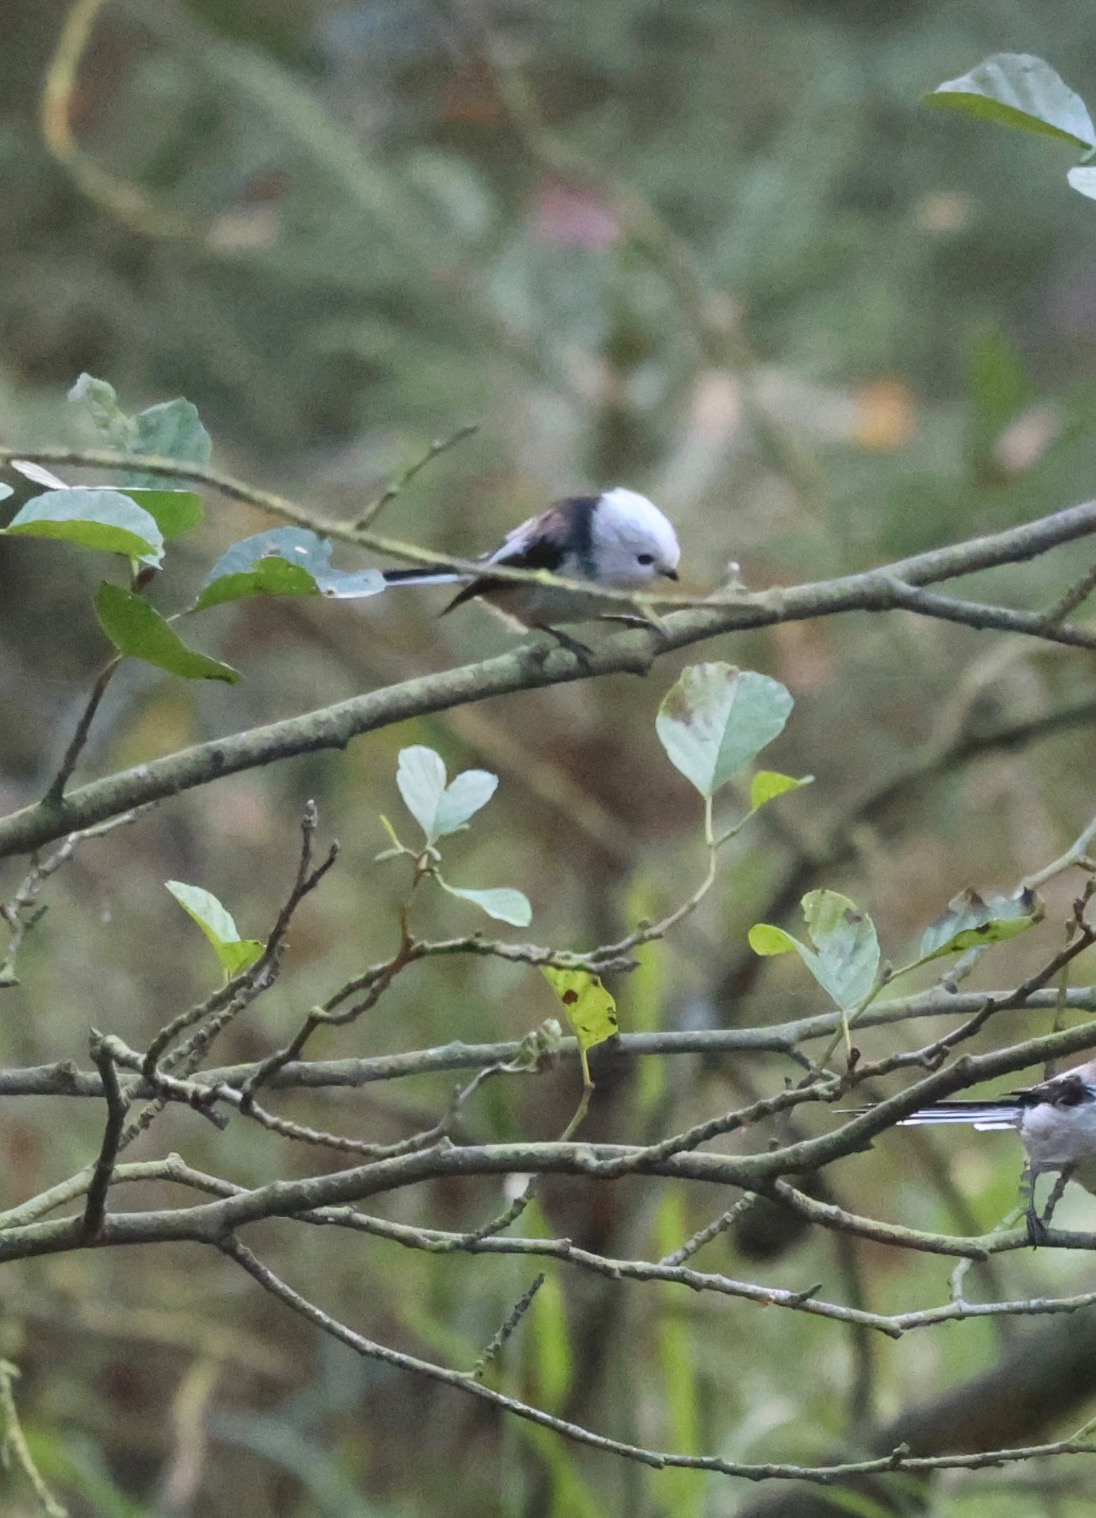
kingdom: Animalia
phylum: Chordata
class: Aves
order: Passeriformes
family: Aegithalidae
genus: Aegithalos
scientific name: Aegithalos caudatus
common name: Nordlig halemejse
